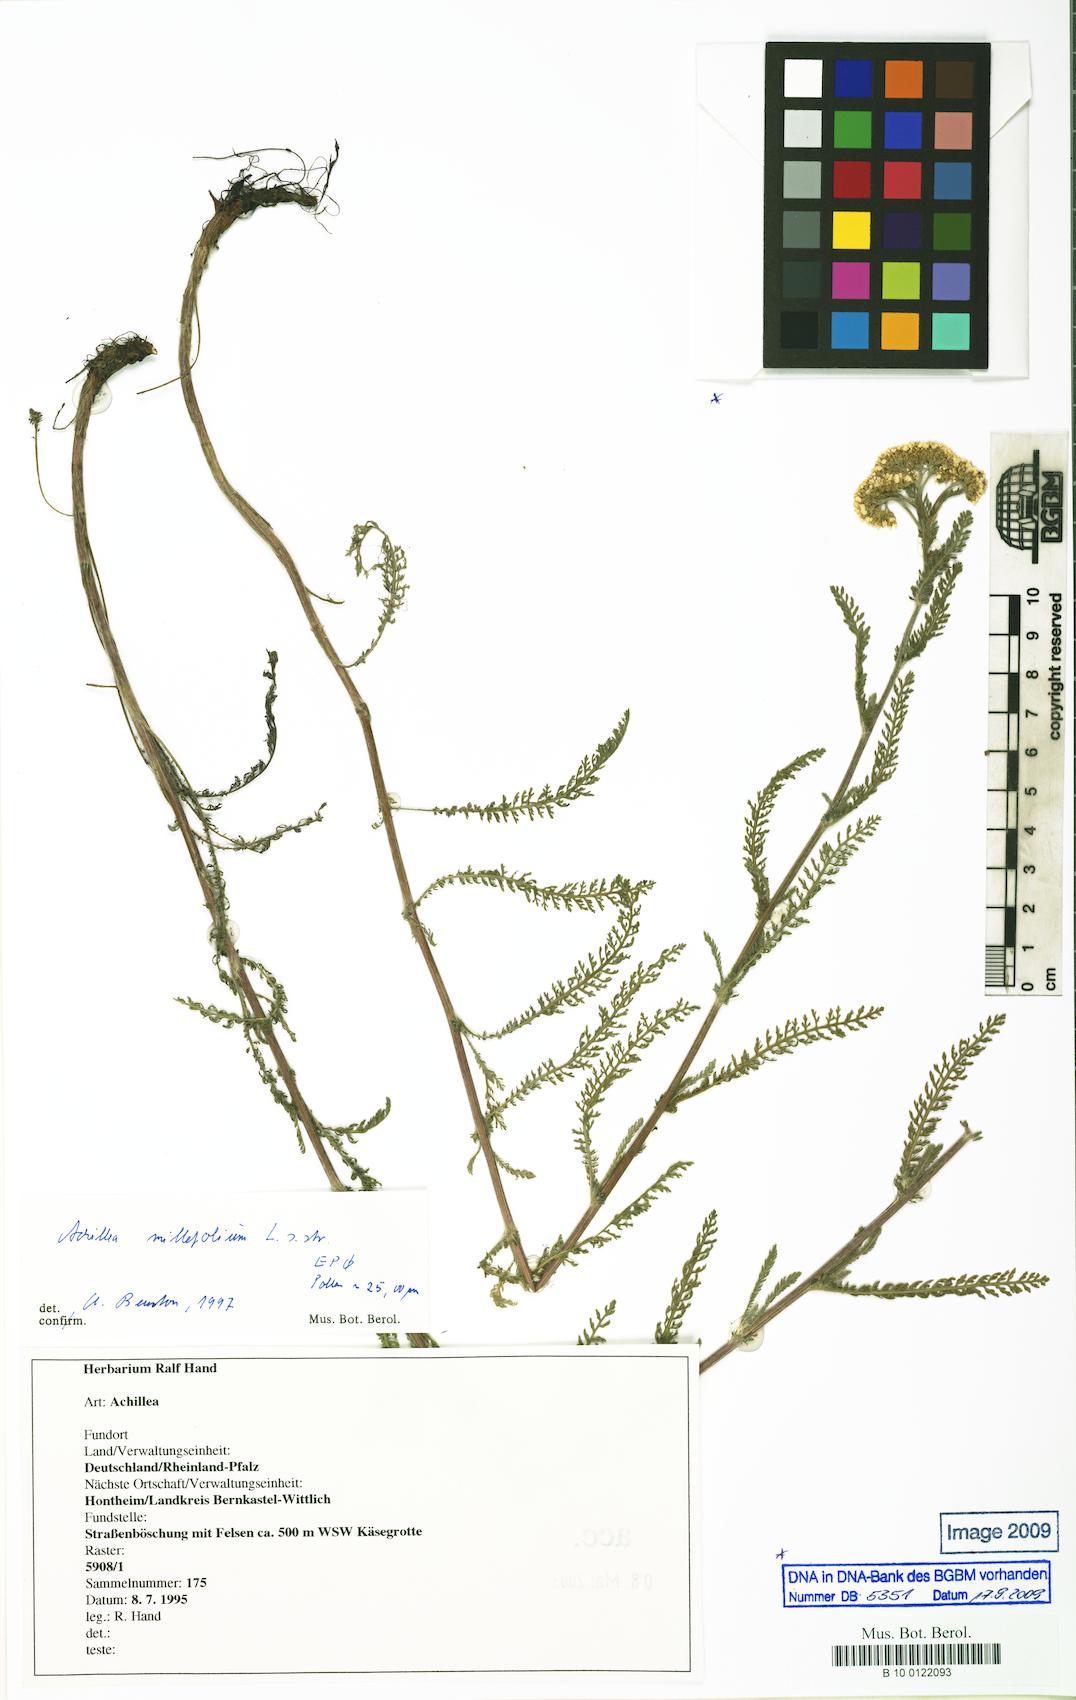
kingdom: Plantae
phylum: Tracheophyta
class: Magnoliopsida
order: Asterales
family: Asteraceae
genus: Achillea
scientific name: Achillea millefolium
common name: Yarrow
